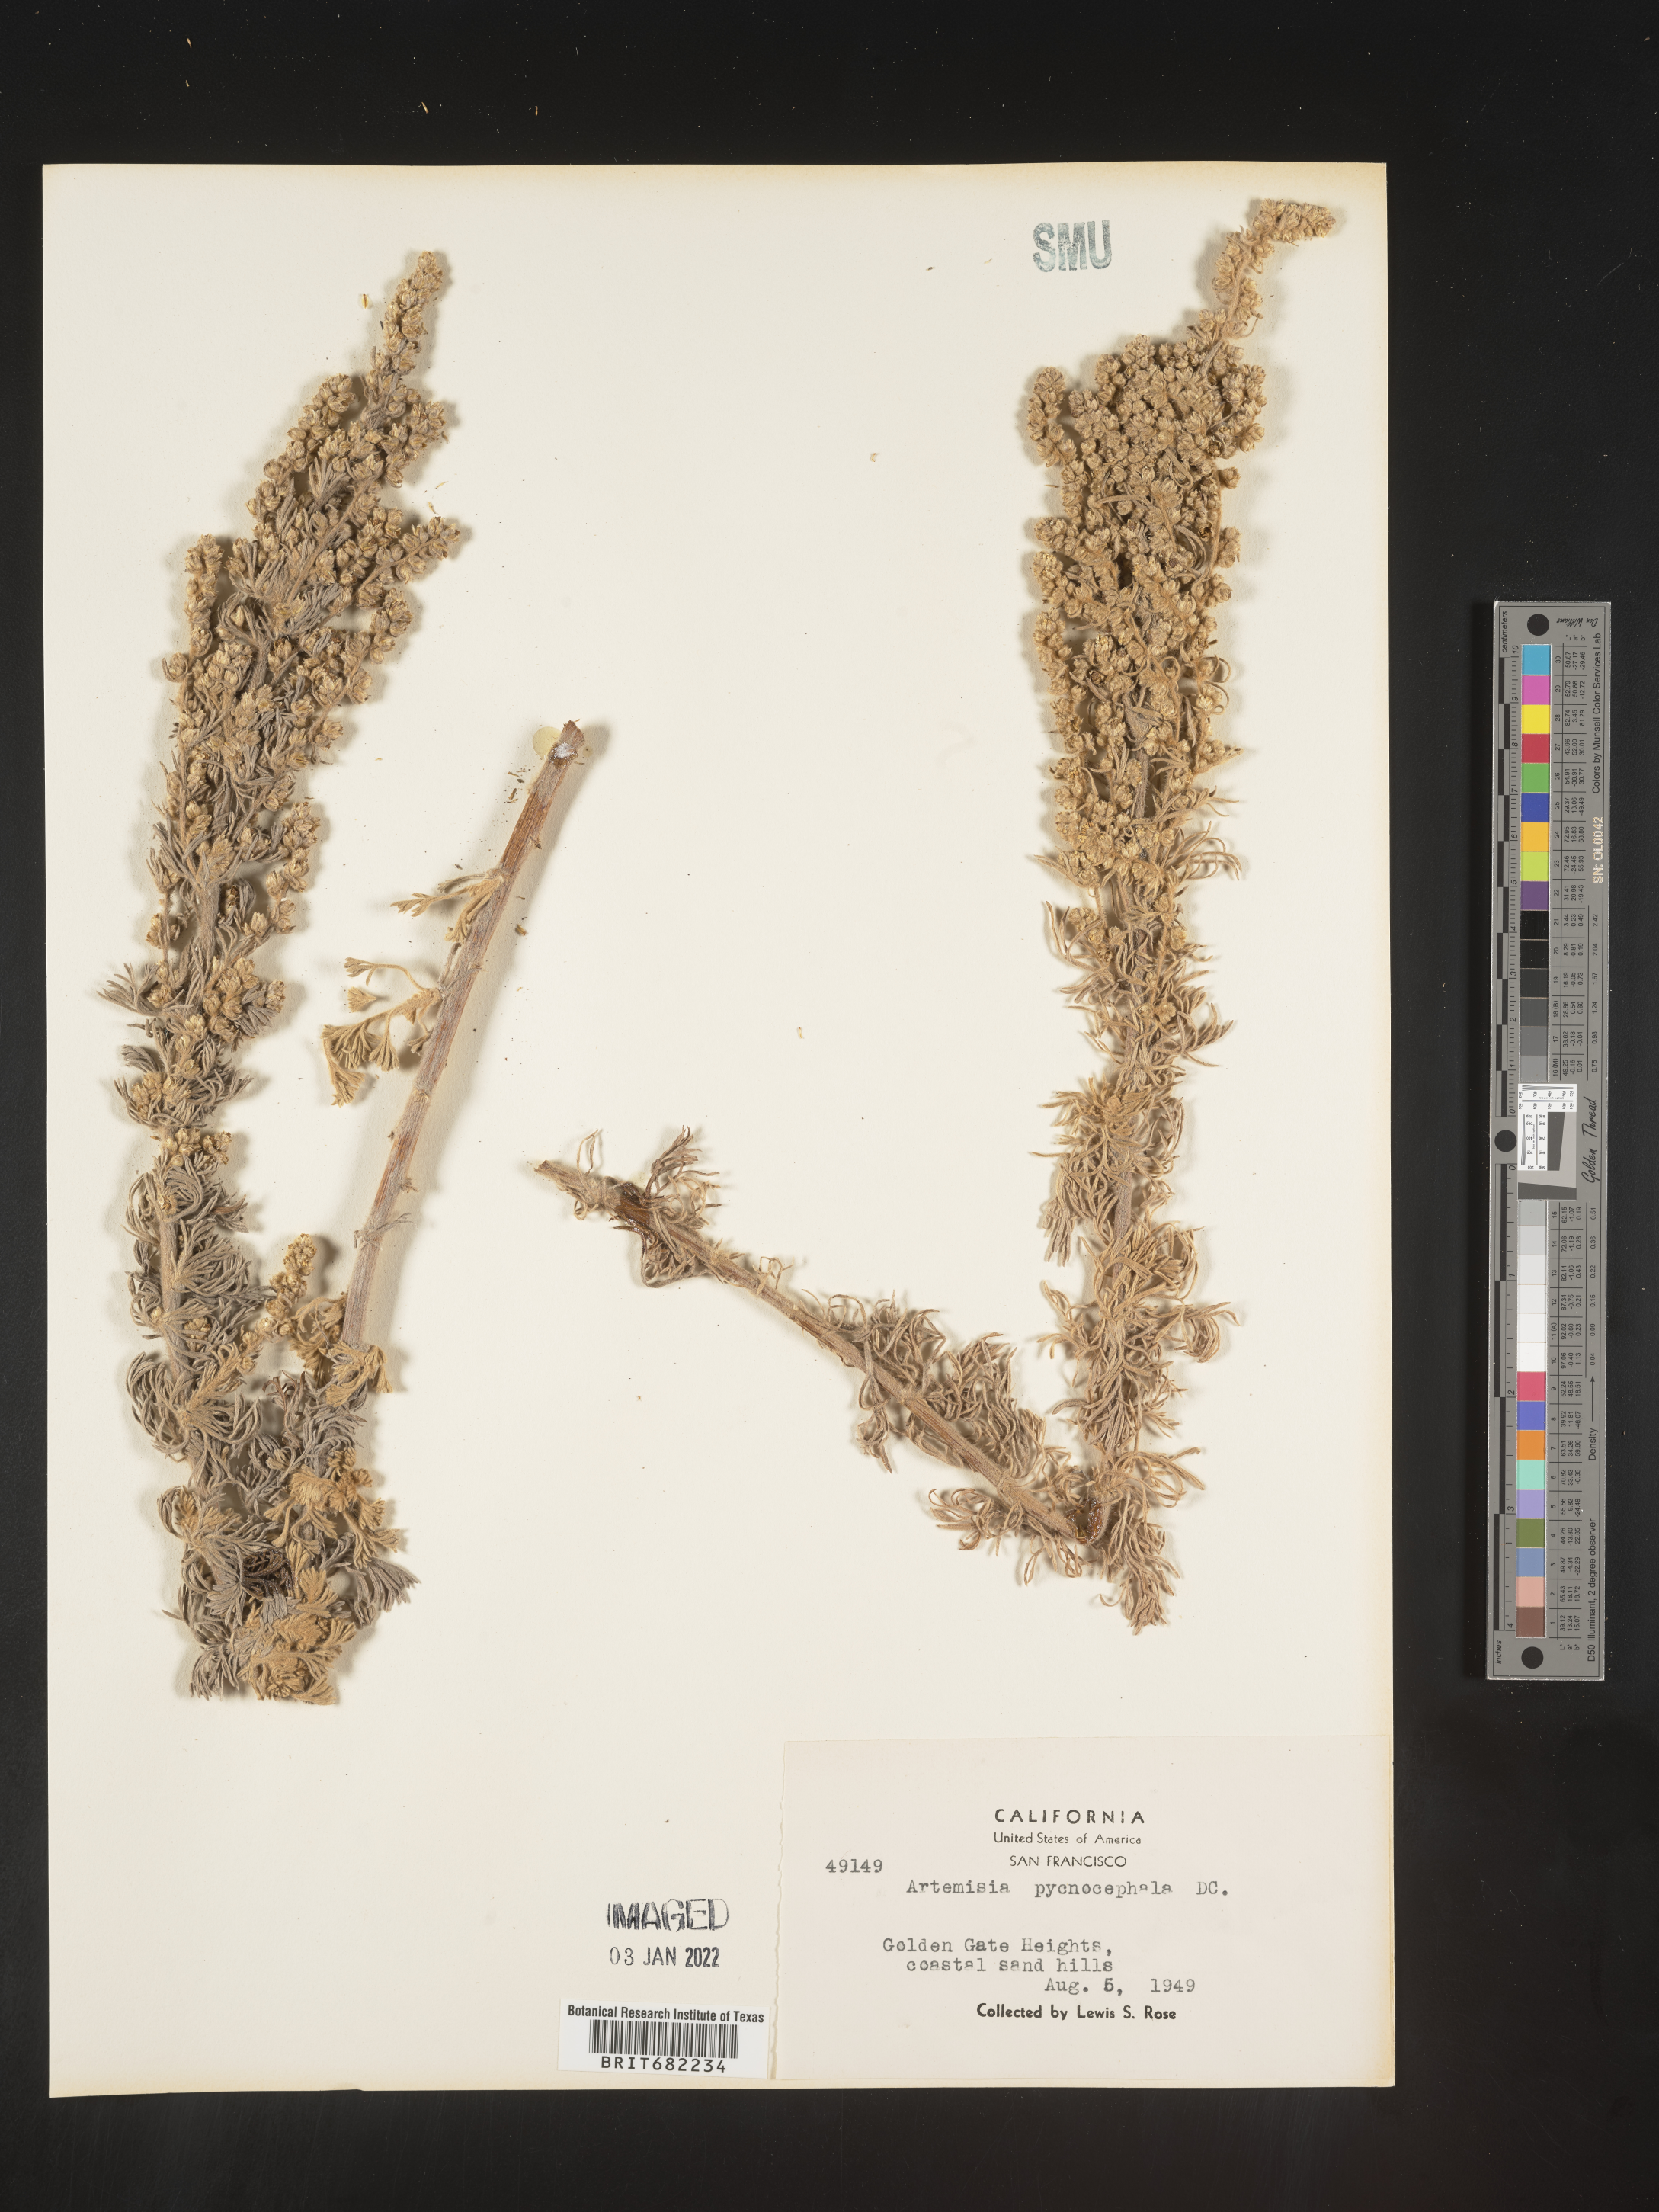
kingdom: Plantae
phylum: Tracheophyta
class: Magnoliopsida
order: Asterales
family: Asteraceae
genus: Artemisia
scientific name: Artemisia pycnocephala
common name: Coastal sagewort
